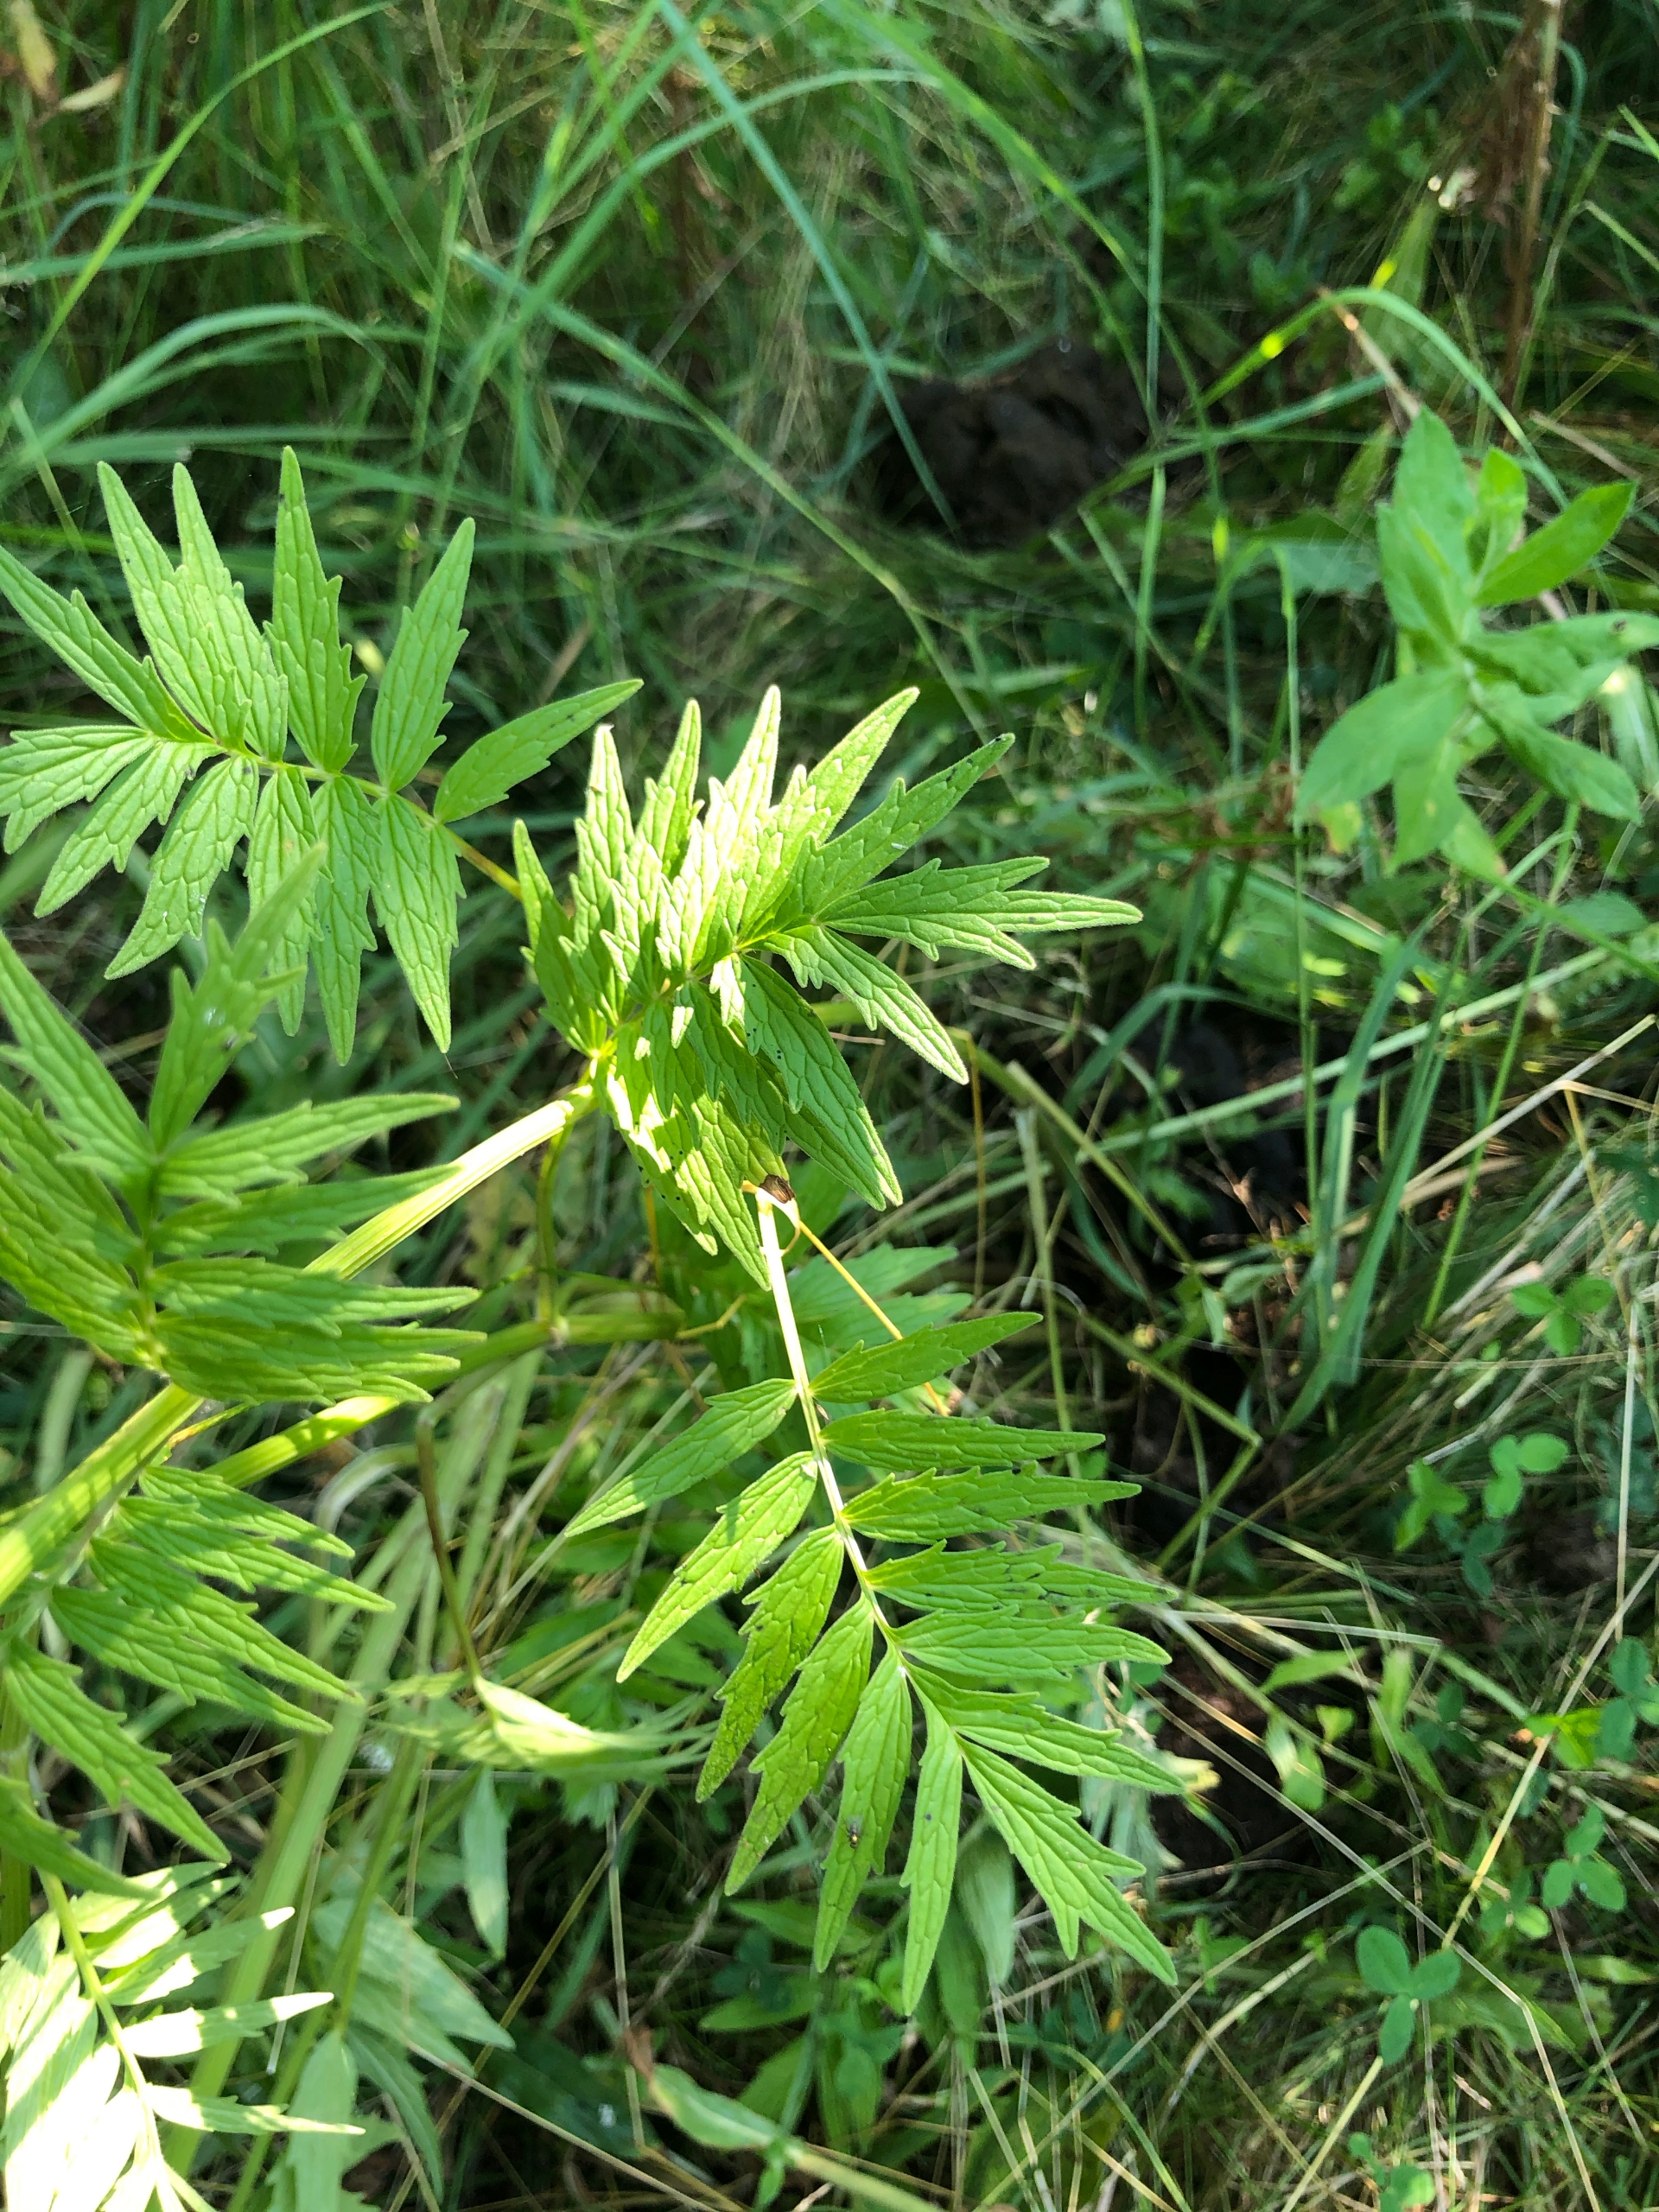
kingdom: Plantae
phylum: Tracheophyta
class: Magnoliopsida
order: Dipsacales
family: Caprifoliaceae
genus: Valeriana
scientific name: Valeriana officinalis
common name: Læge-baldrian
